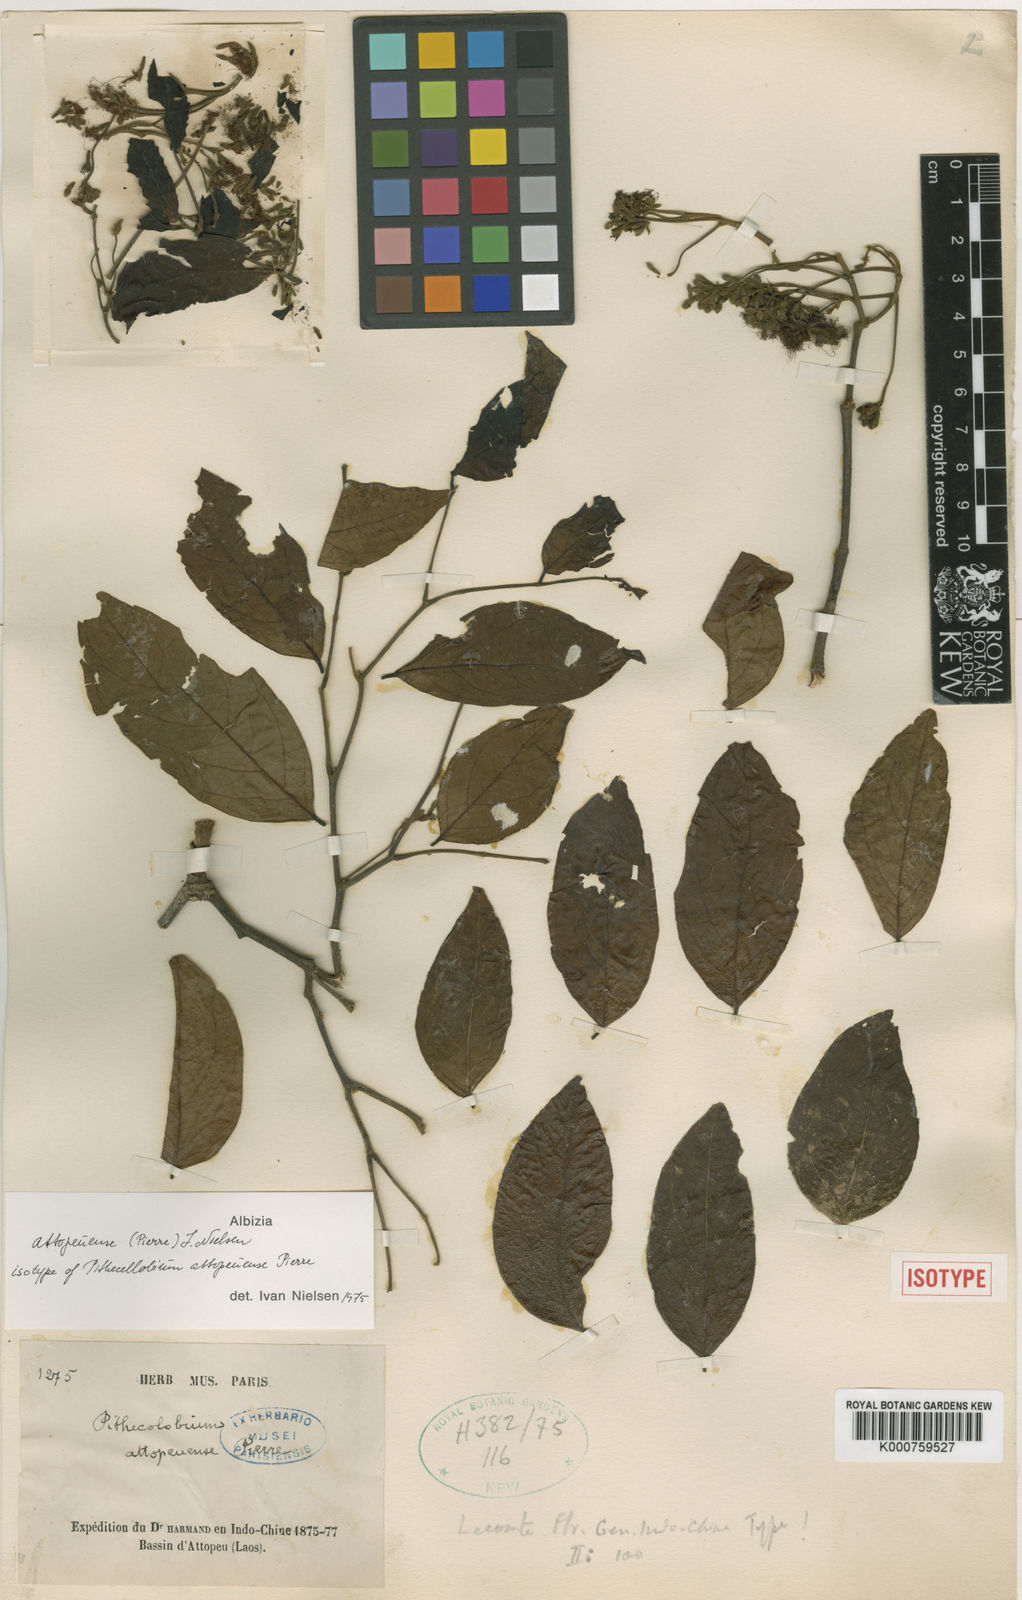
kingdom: Plantae
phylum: Tracheophyta
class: Magnoliopsida
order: Fabales
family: Fabaceae
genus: Albizia
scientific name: Albizia
